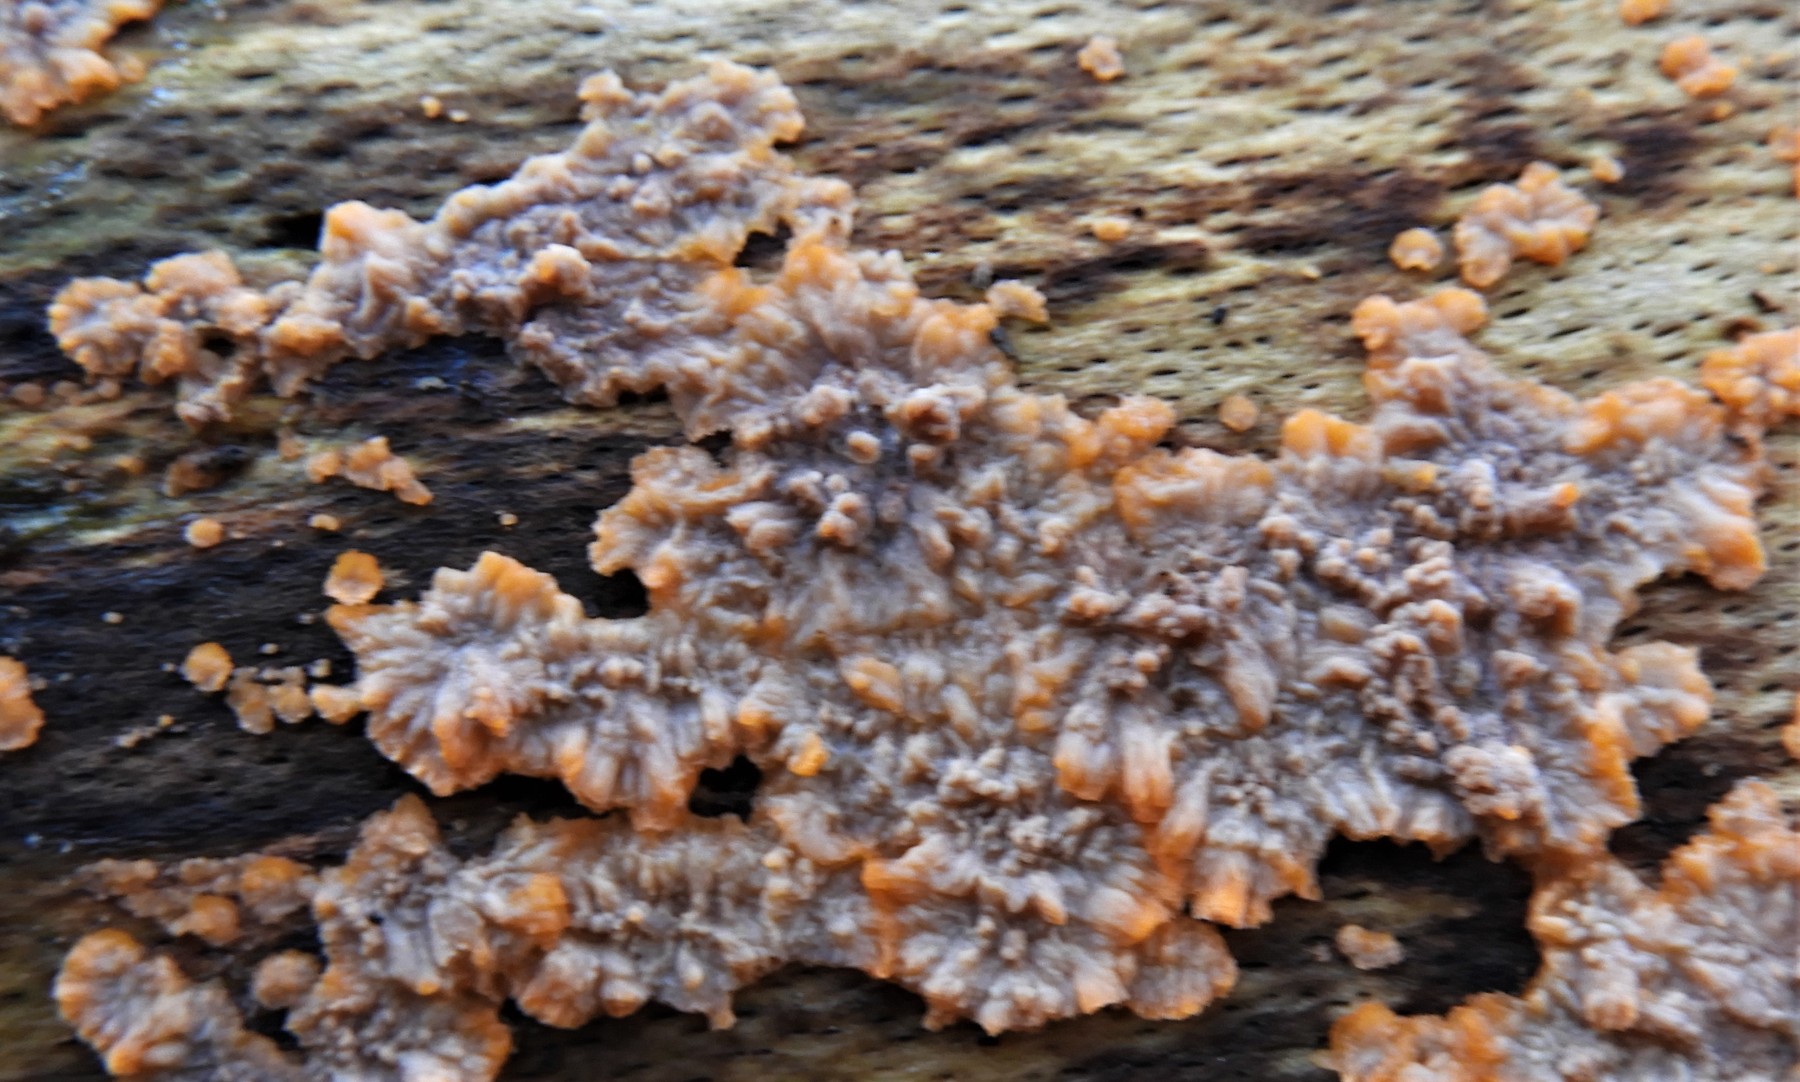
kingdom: Fungi
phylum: Basidiomycota
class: Agaricomycetes
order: Polyporales
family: Meruliaceae
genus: Phlebia
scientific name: Phlebia radiata
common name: stråle-åresvamp
